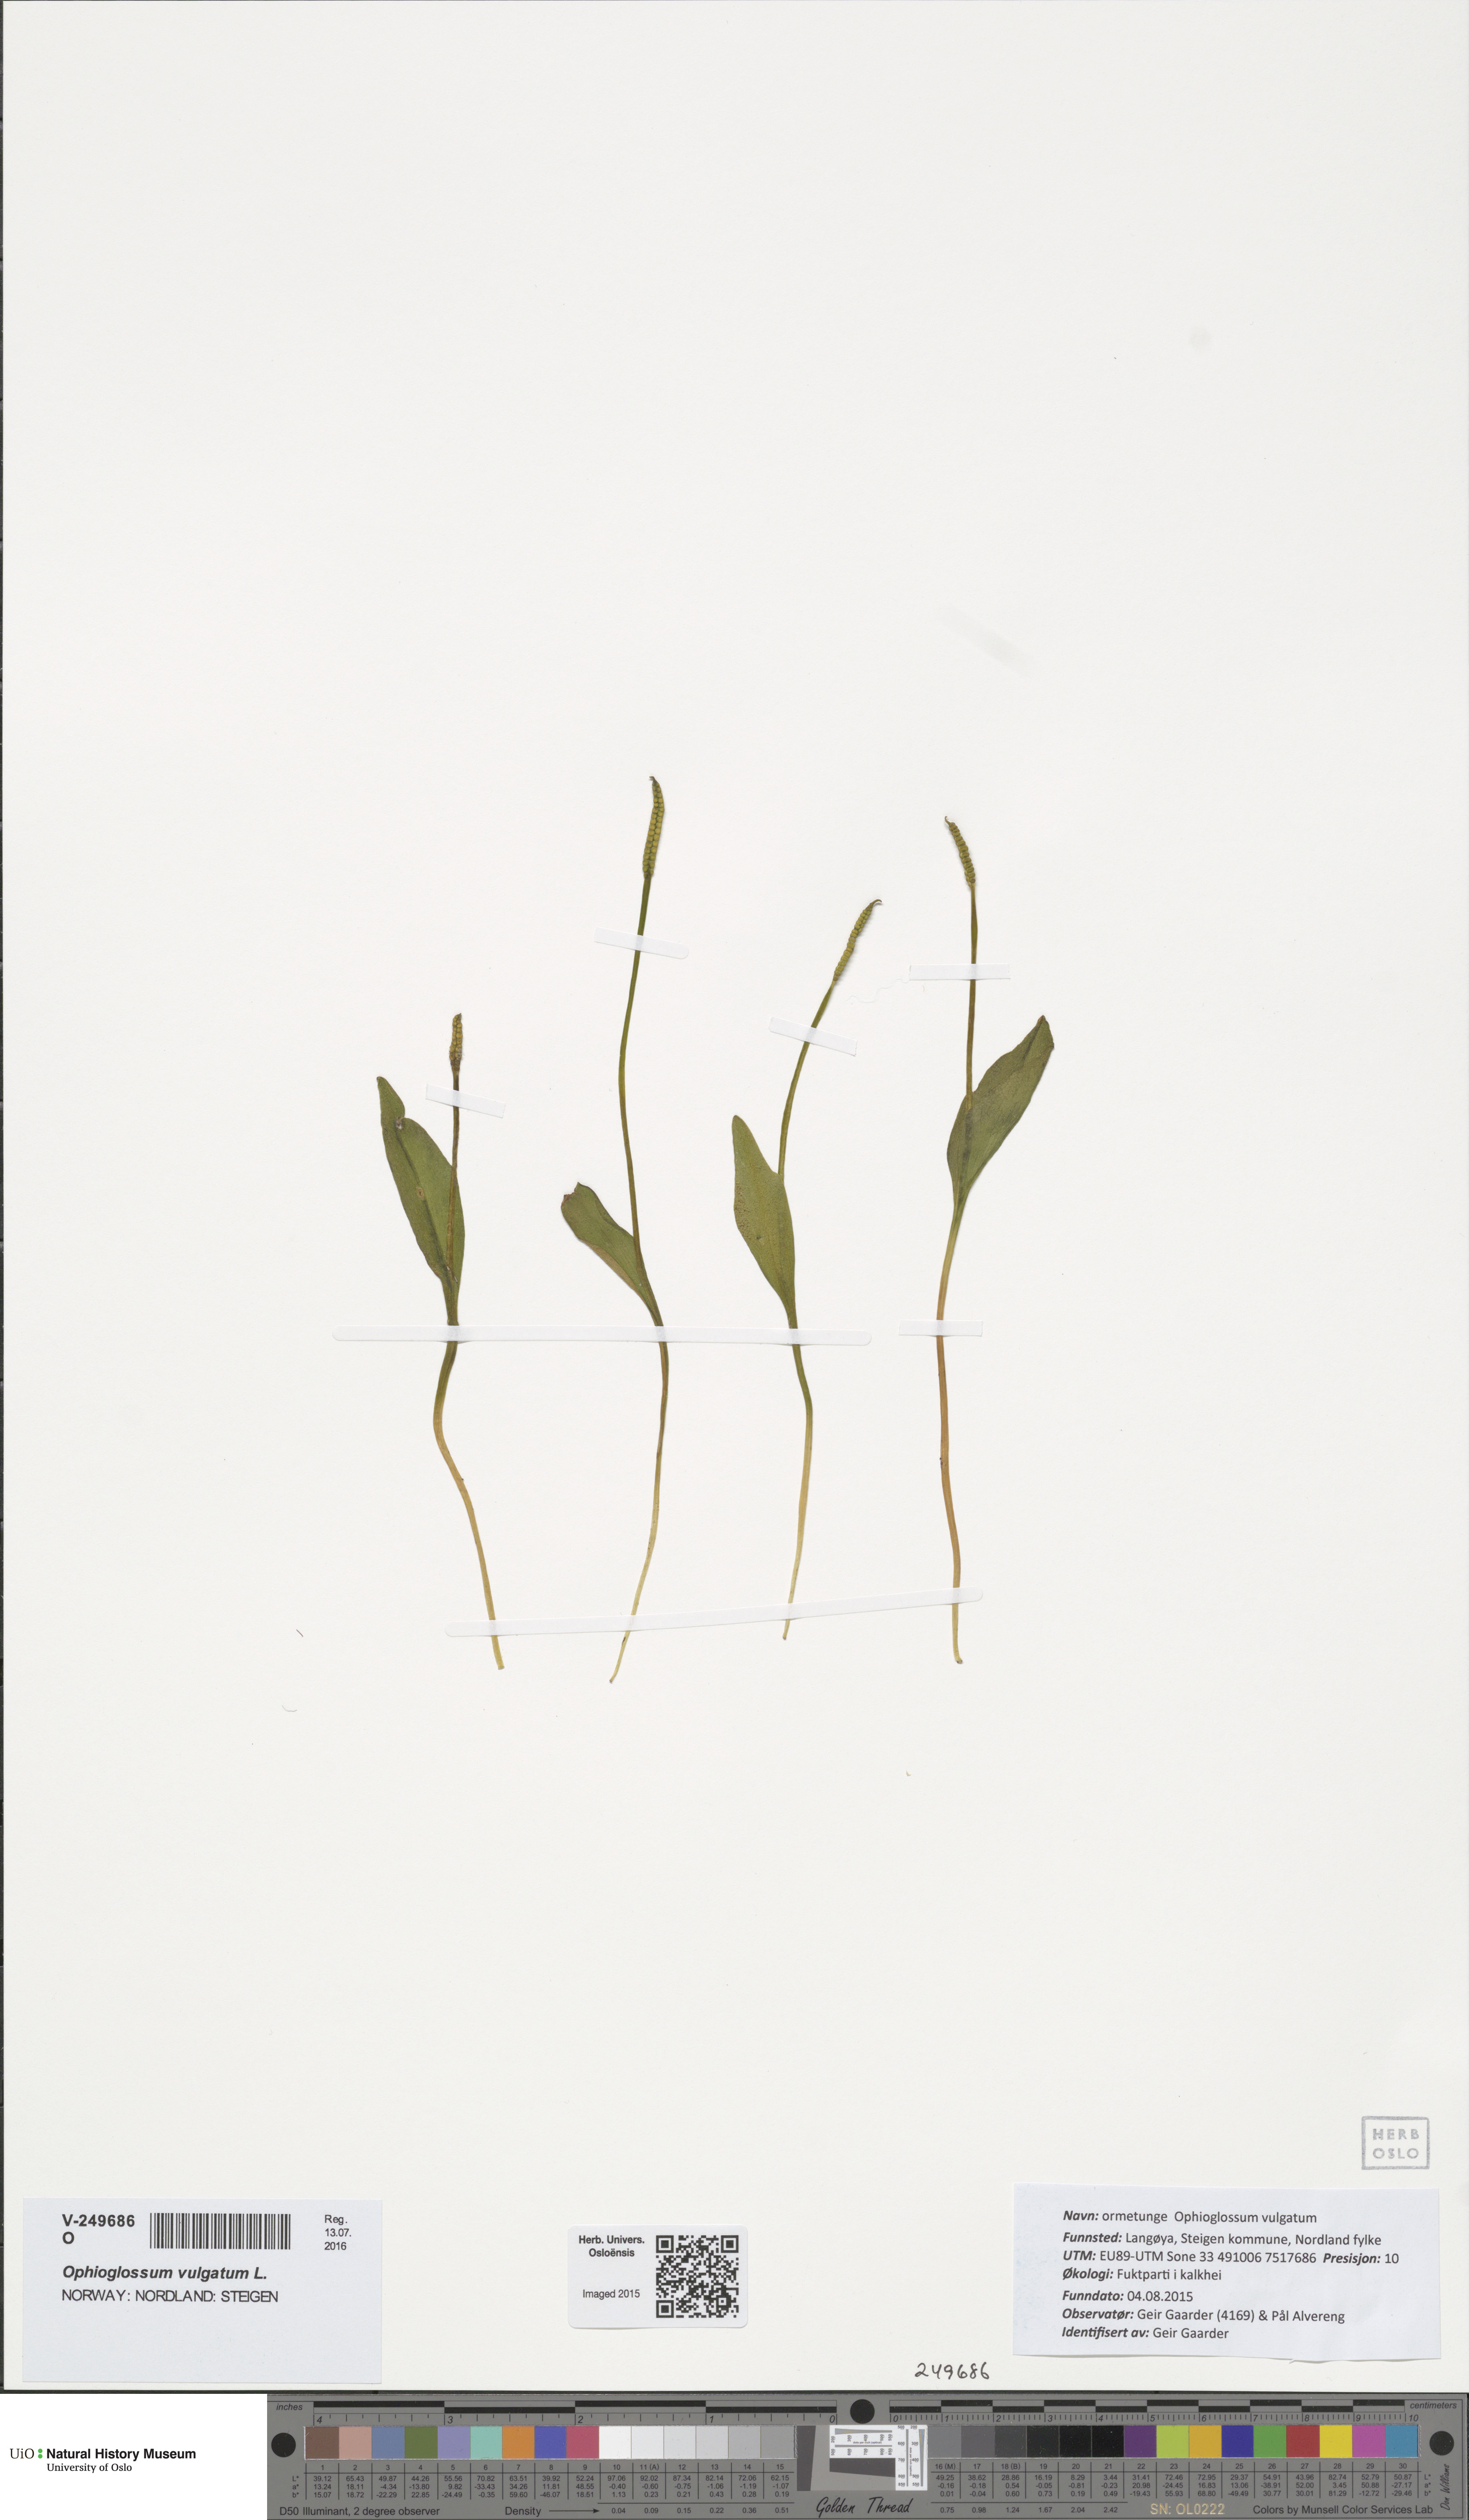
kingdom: Plantae
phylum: Tracheophyta
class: Polypodiopsida
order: Ophioglossales
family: Ophioglossaceae
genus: Ophioglossum
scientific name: Ophioglossum vulgatum
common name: Adder's-tongue
